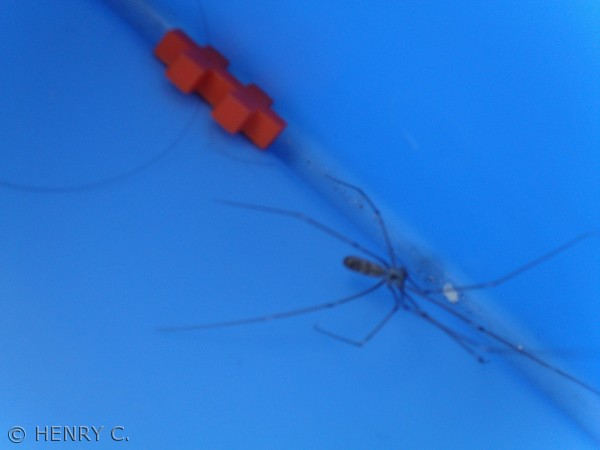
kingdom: Animalia
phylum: Arthropoda
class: Arachnida
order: Araneae
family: Pholcidae
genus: Pholcus
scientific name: Pholcus phalangioides
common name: Mejeredderkop
